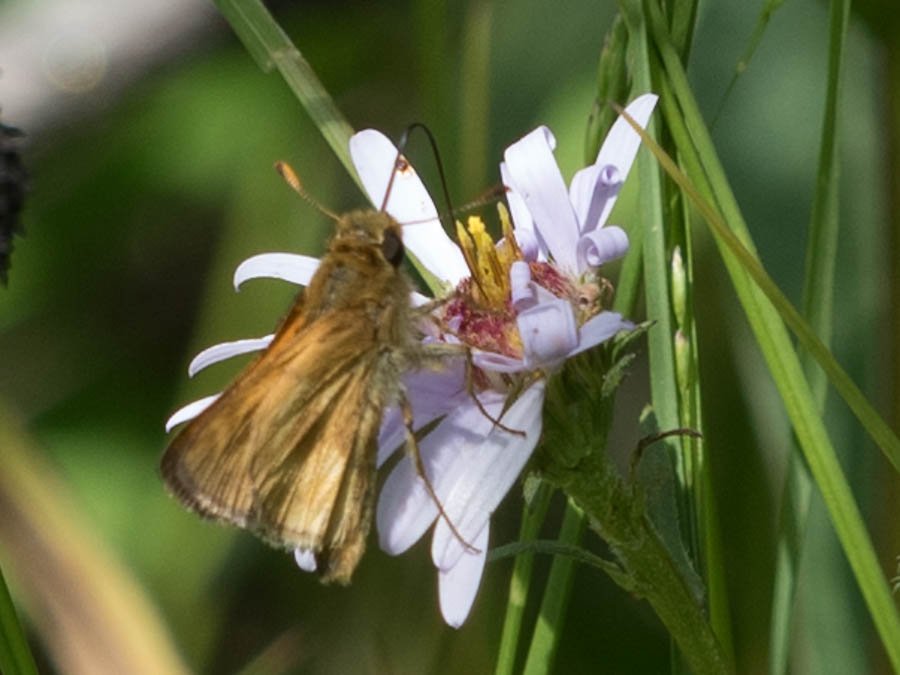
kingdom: Animalia
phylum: Arthropoda
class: Insecta
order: Lepidoptera
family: Hesperiidae
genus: Polites
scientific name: Polites themistocles
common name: Tawny-edged Skipper
